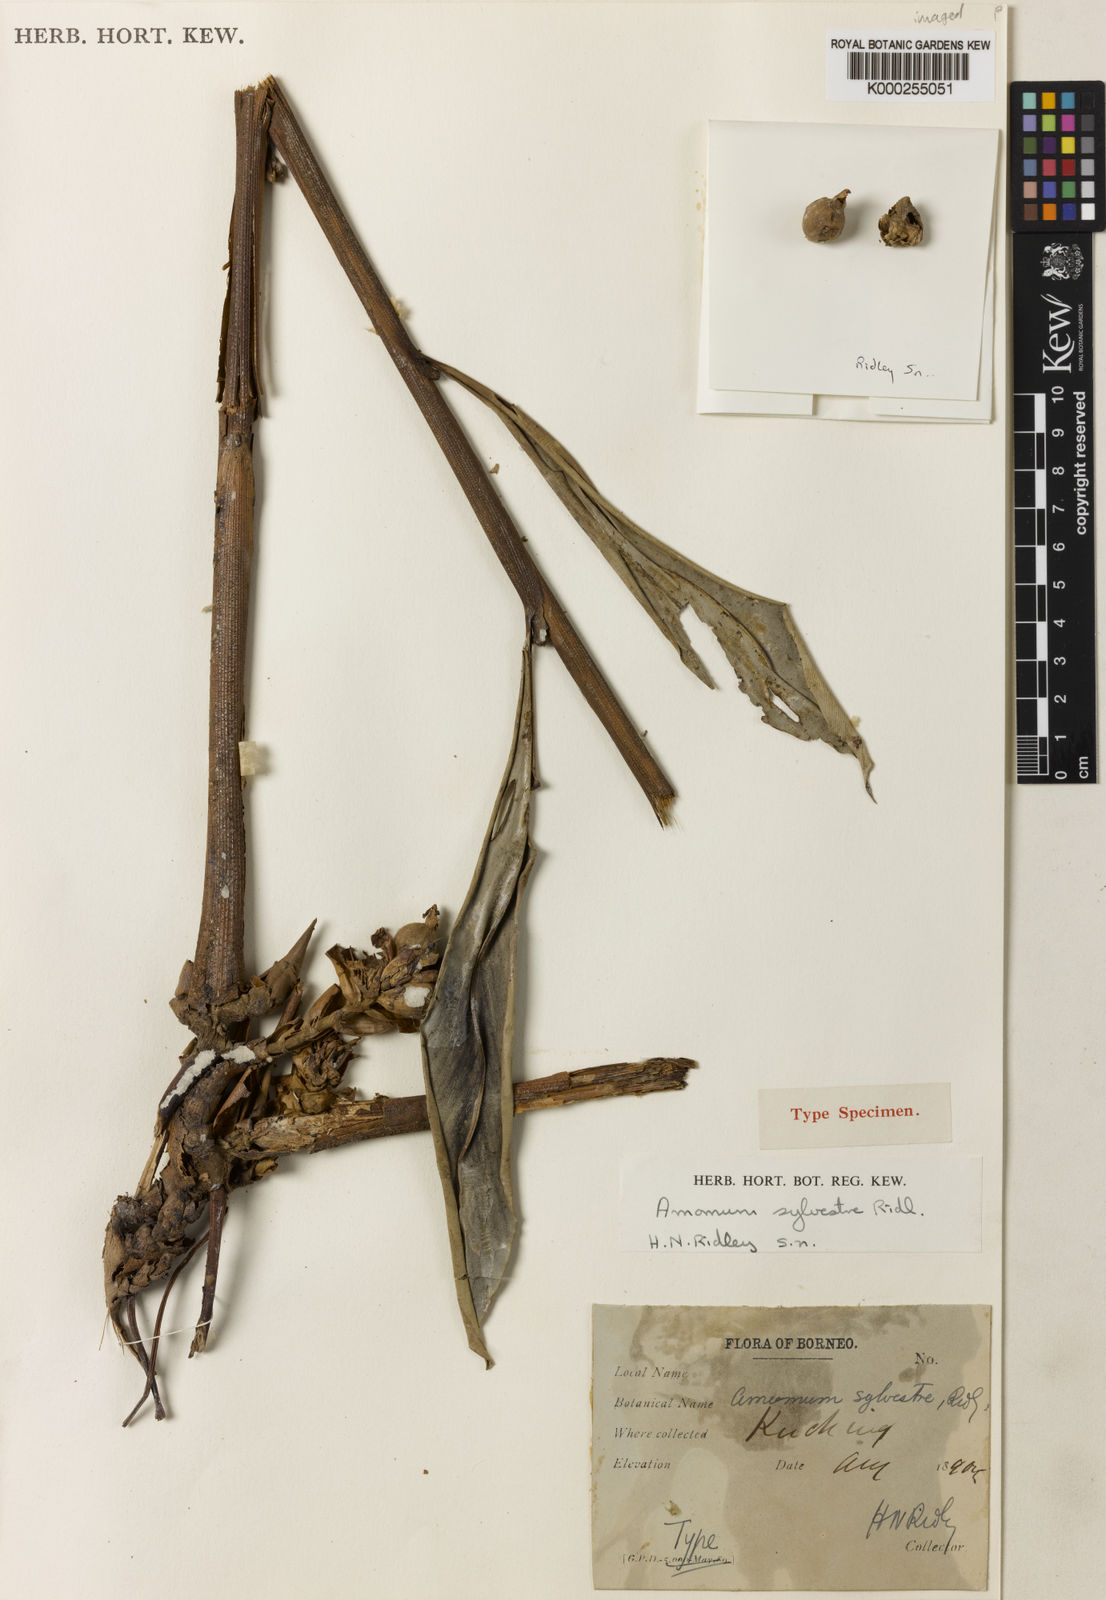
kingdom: Plantae
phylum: Tracheophyta
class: Liliopsida
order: Zingiberales
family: Zingiberaceae
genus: Sundamomum
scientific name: Sundamomum borealiborneense
